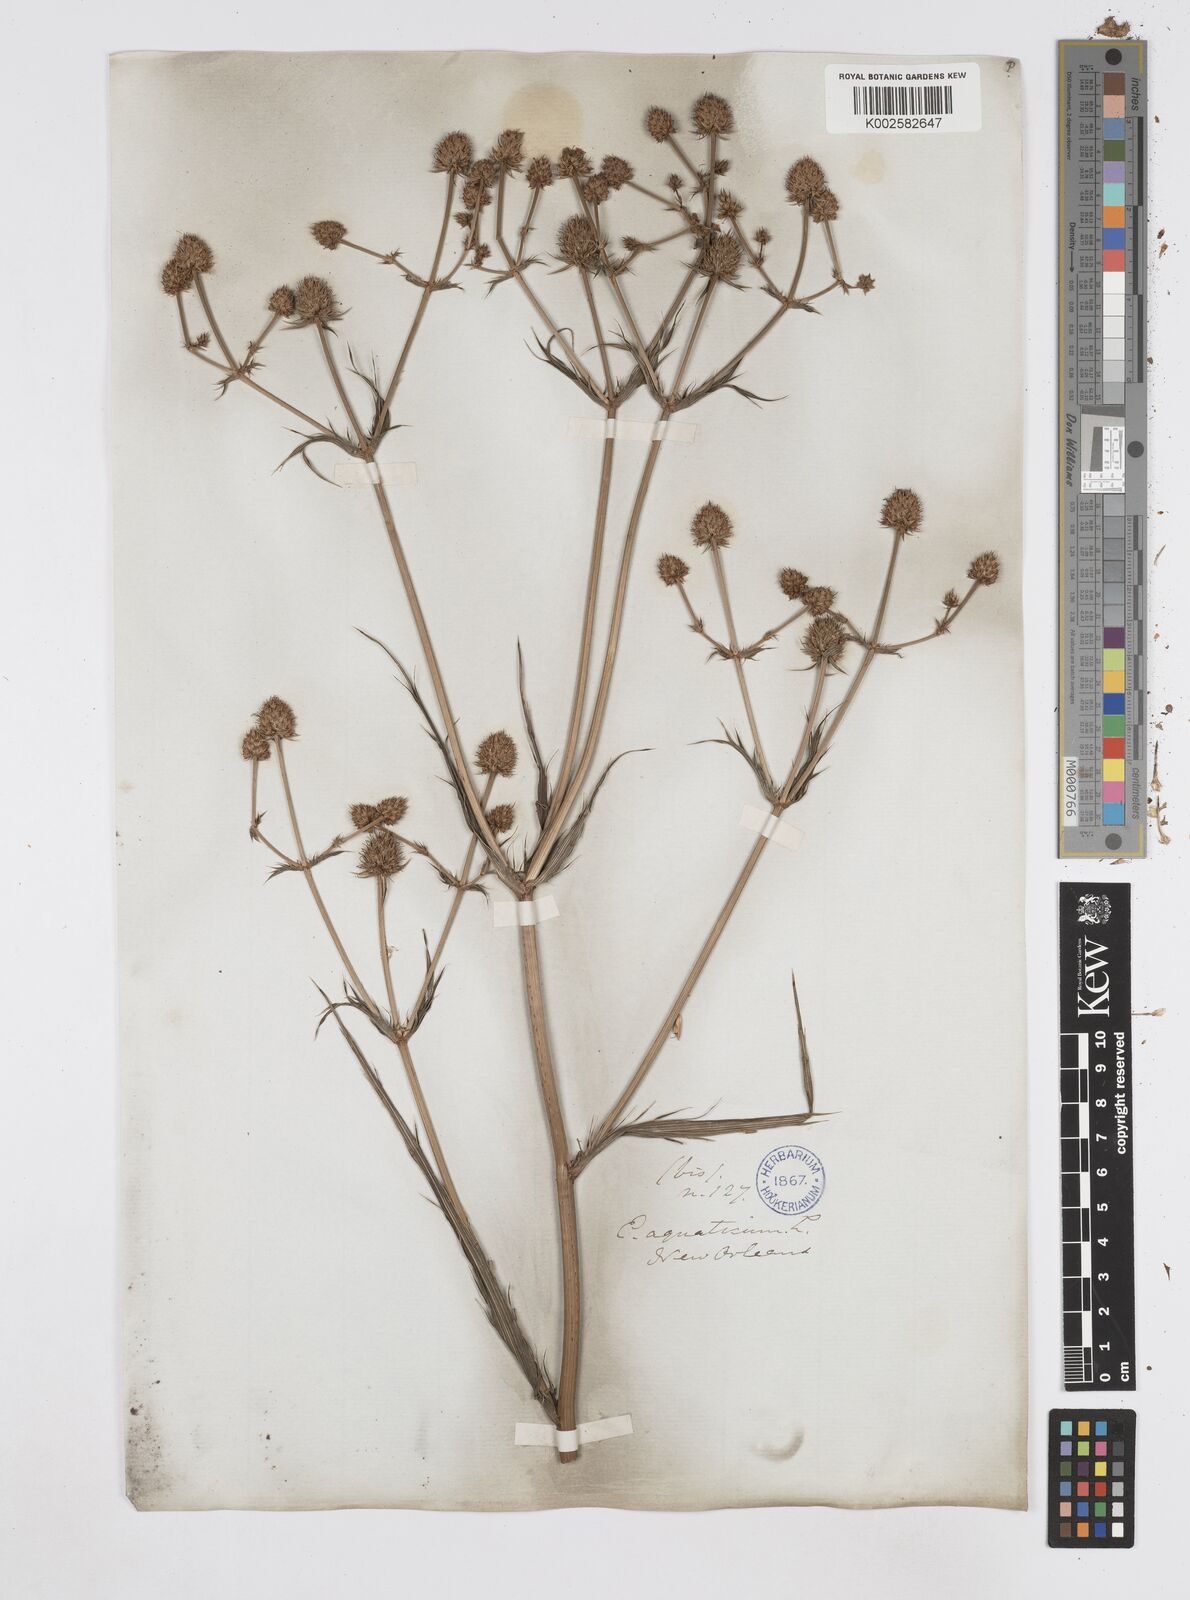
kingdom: Plantae
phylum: Tracheophyta
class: Magnoliopsida
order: Apiales
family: Apiaceae
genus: Eryngium
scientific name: Eryngium yuccifolium
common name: Button eryngo
